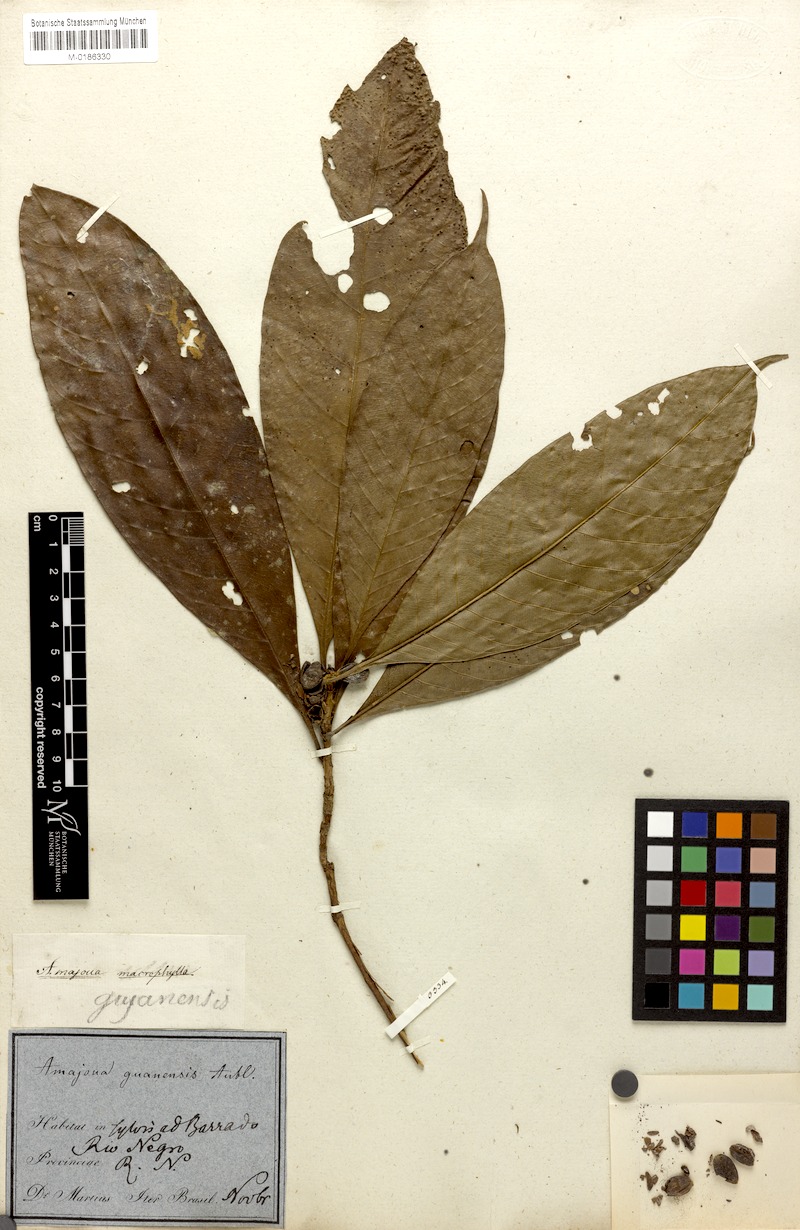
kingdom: Plantae
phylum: Tracheophyta
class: Magnoliopsida
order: Gentianales
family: Rubiaceae
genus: Amaioua
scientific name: Amaioua guianensis
